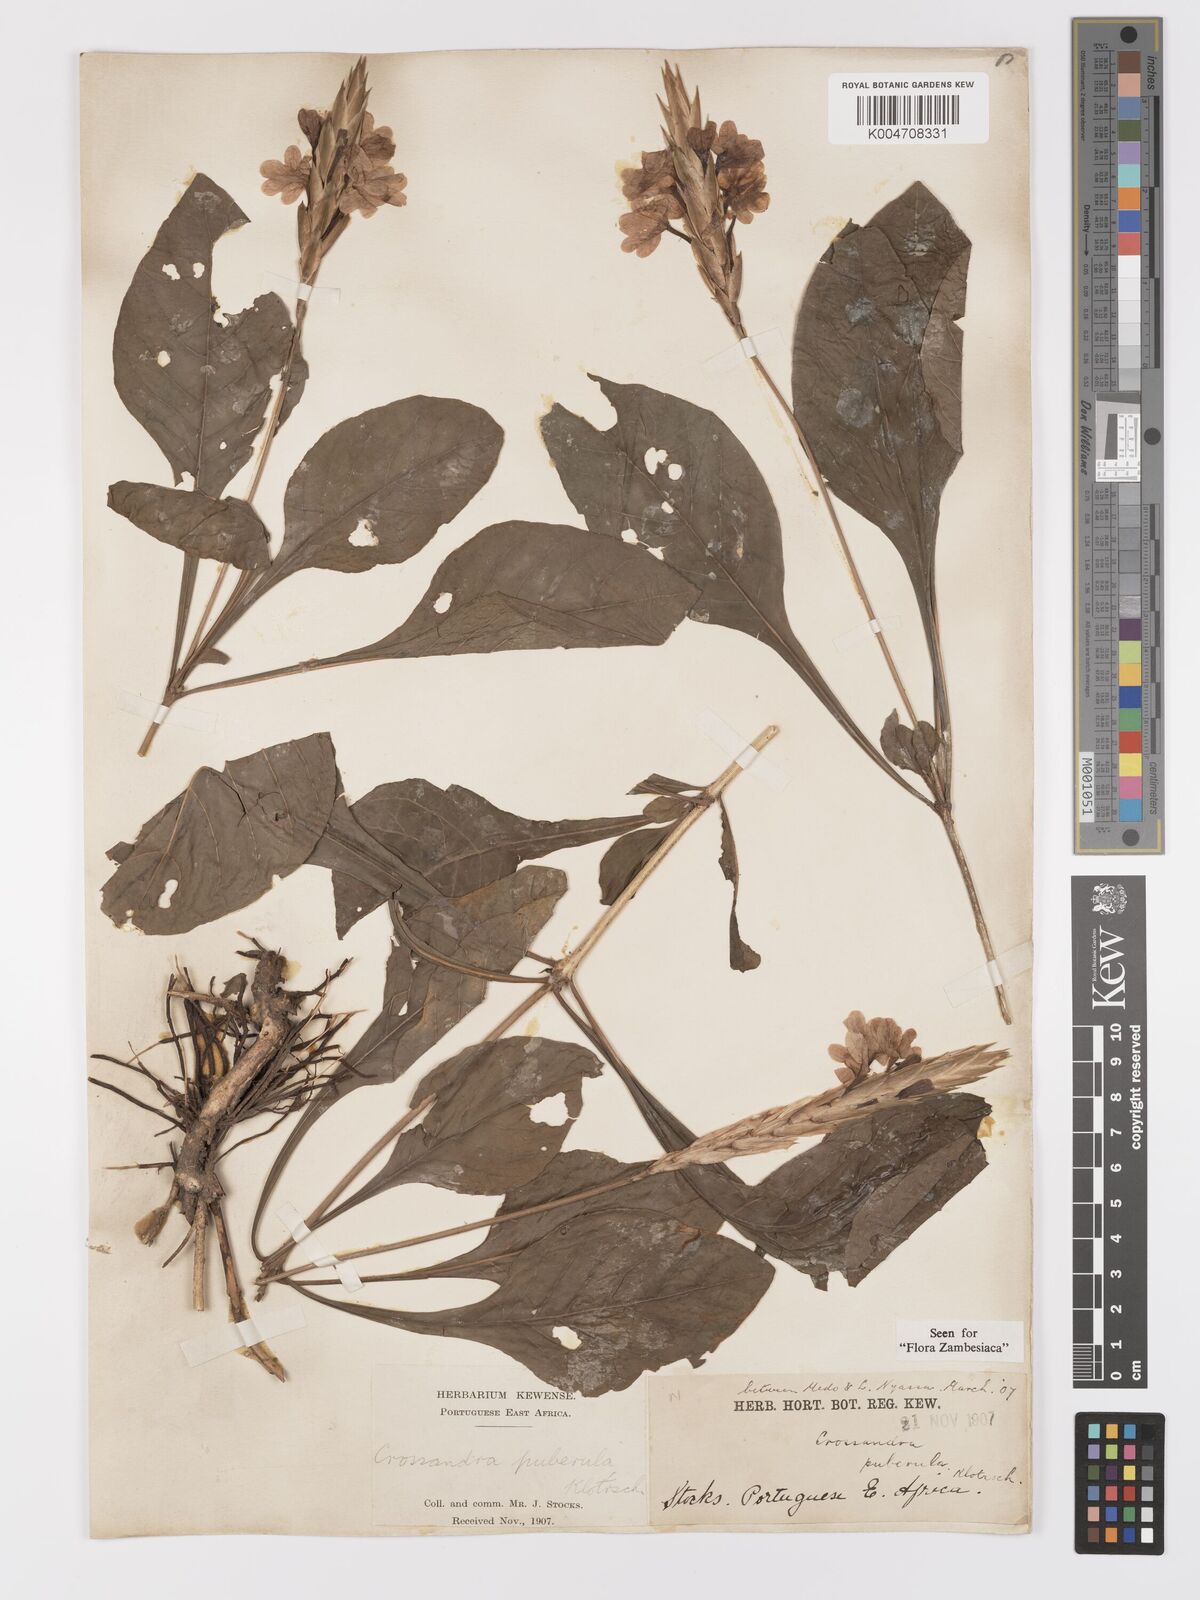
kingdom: Plantae
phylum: Tracheophyta
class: Magnoliopsida
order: Lamiales
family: Acanthaceae
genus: Crossandra
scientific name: Crossandra puberula
